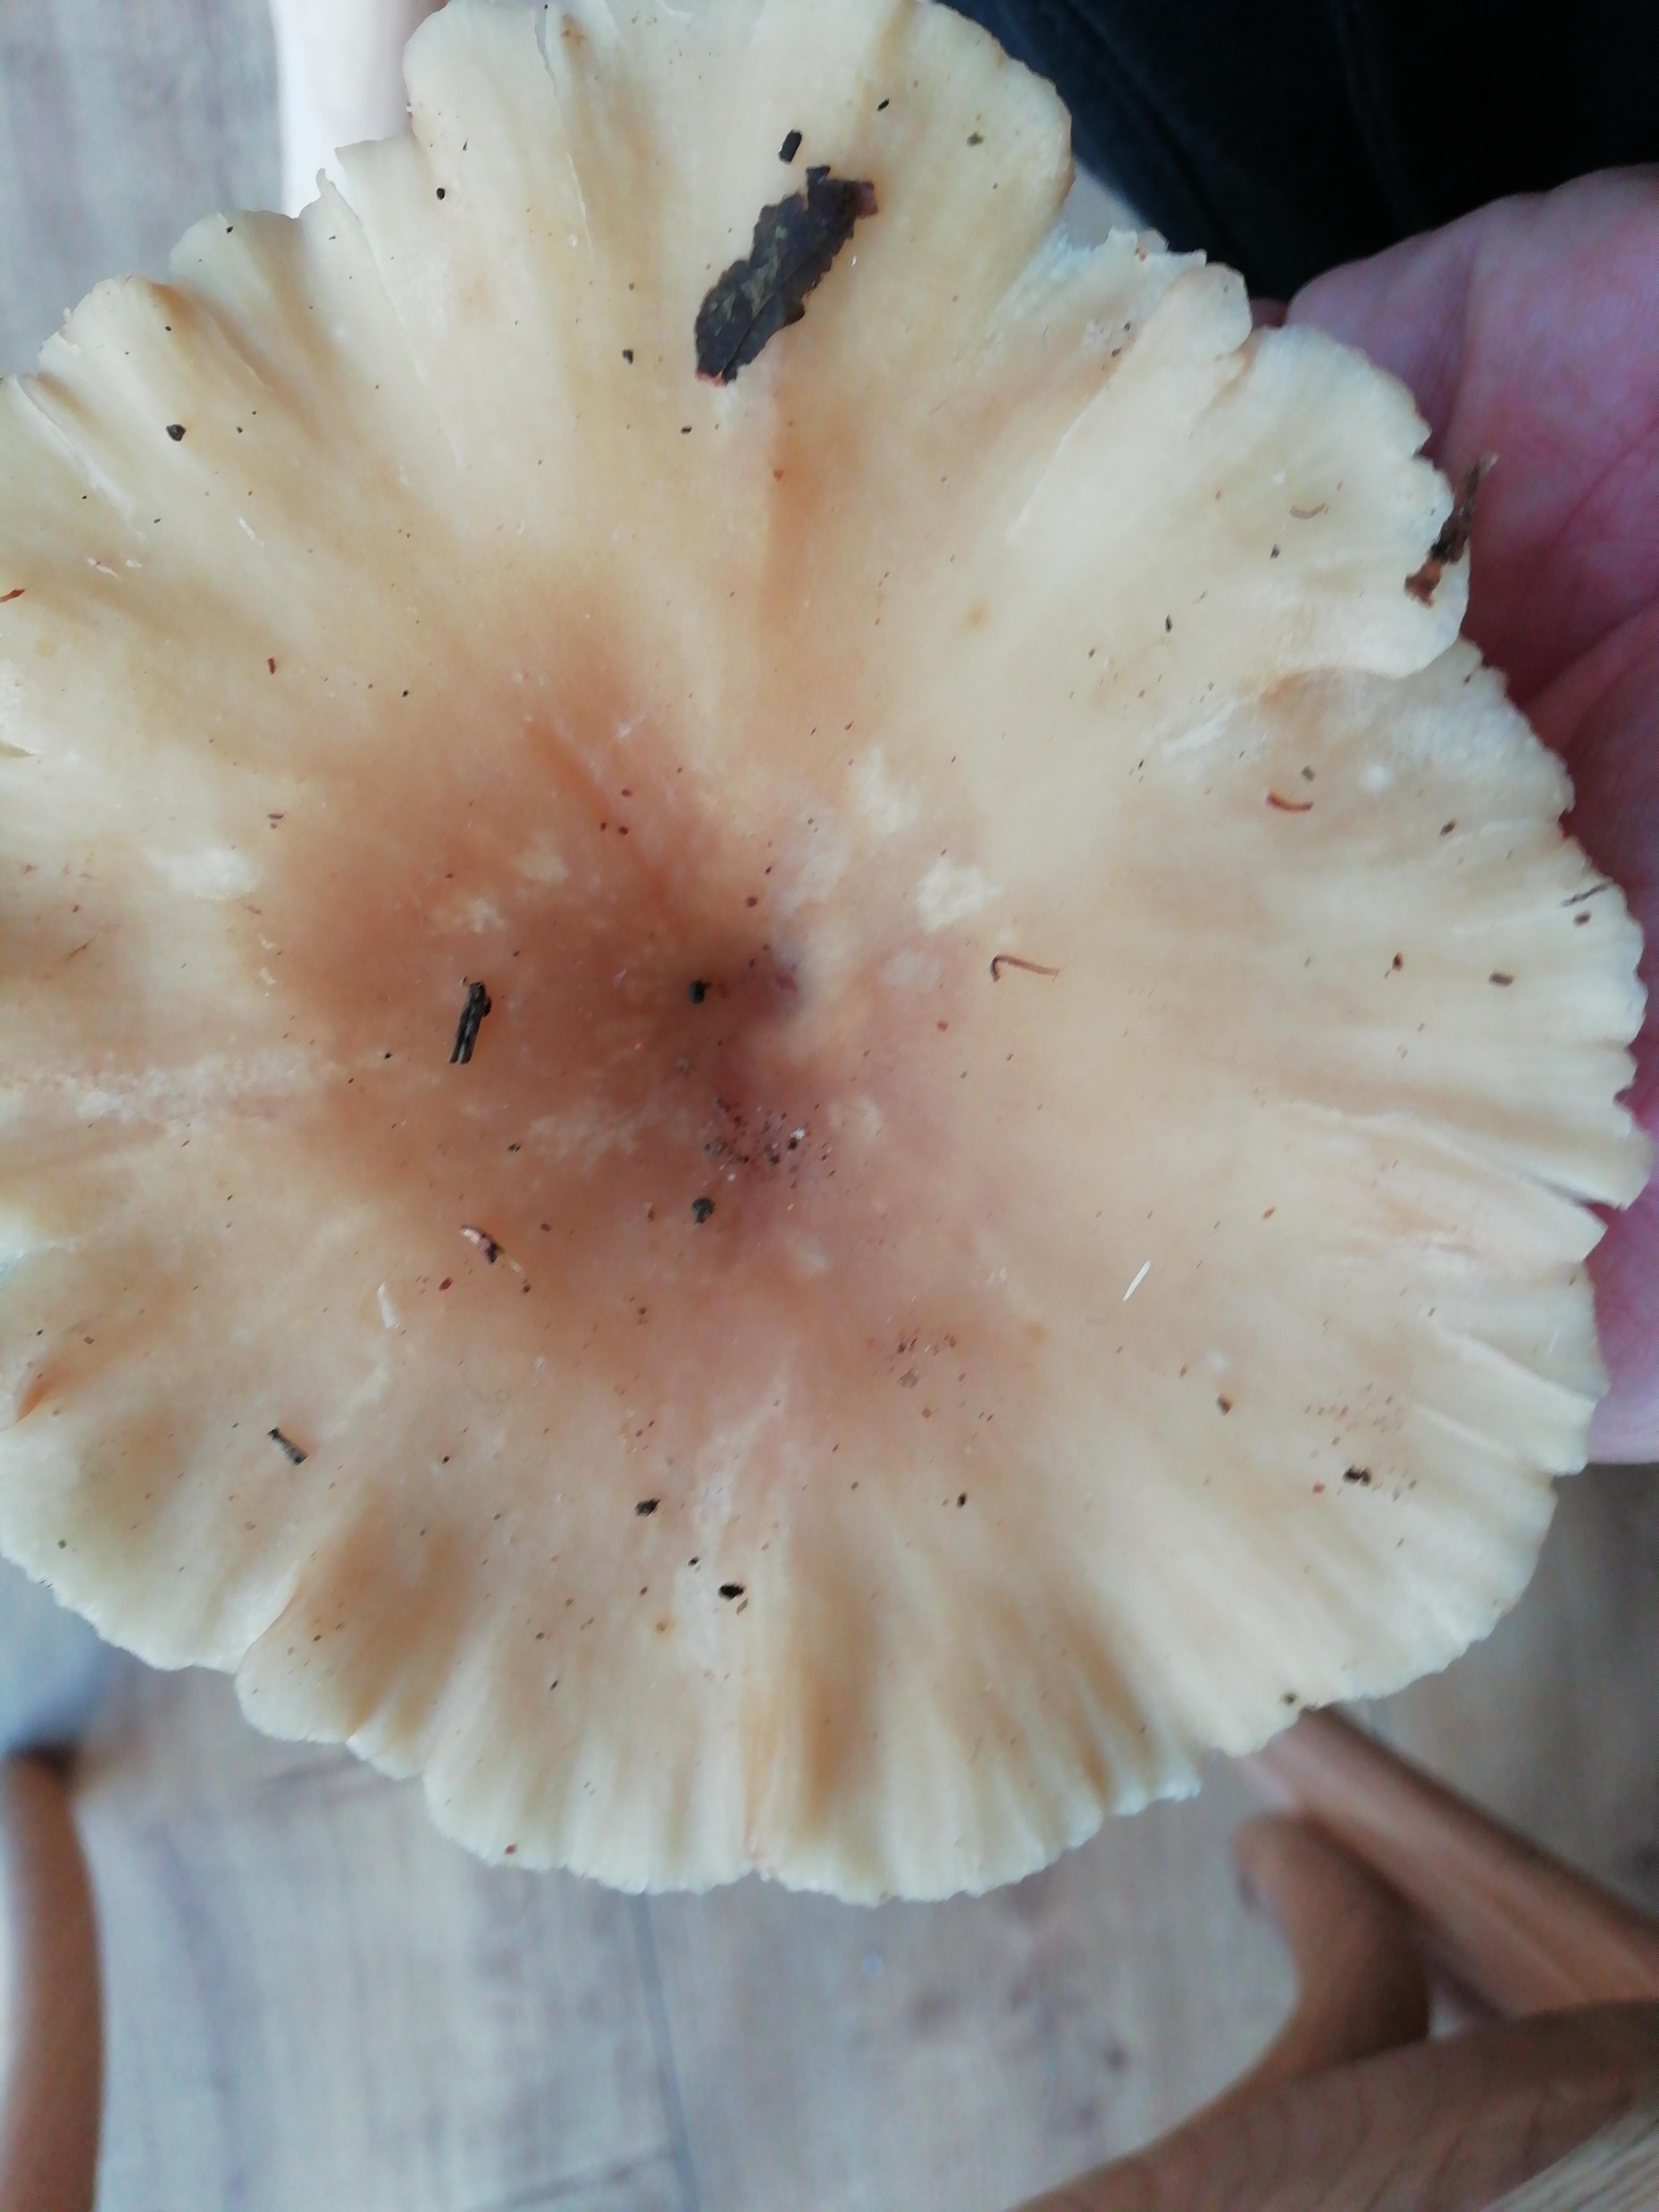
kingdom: Fungi
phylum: Basidiomycota
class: Agaricomycetes
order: Agaricales
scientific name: Agaricales
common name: champignonordenen
